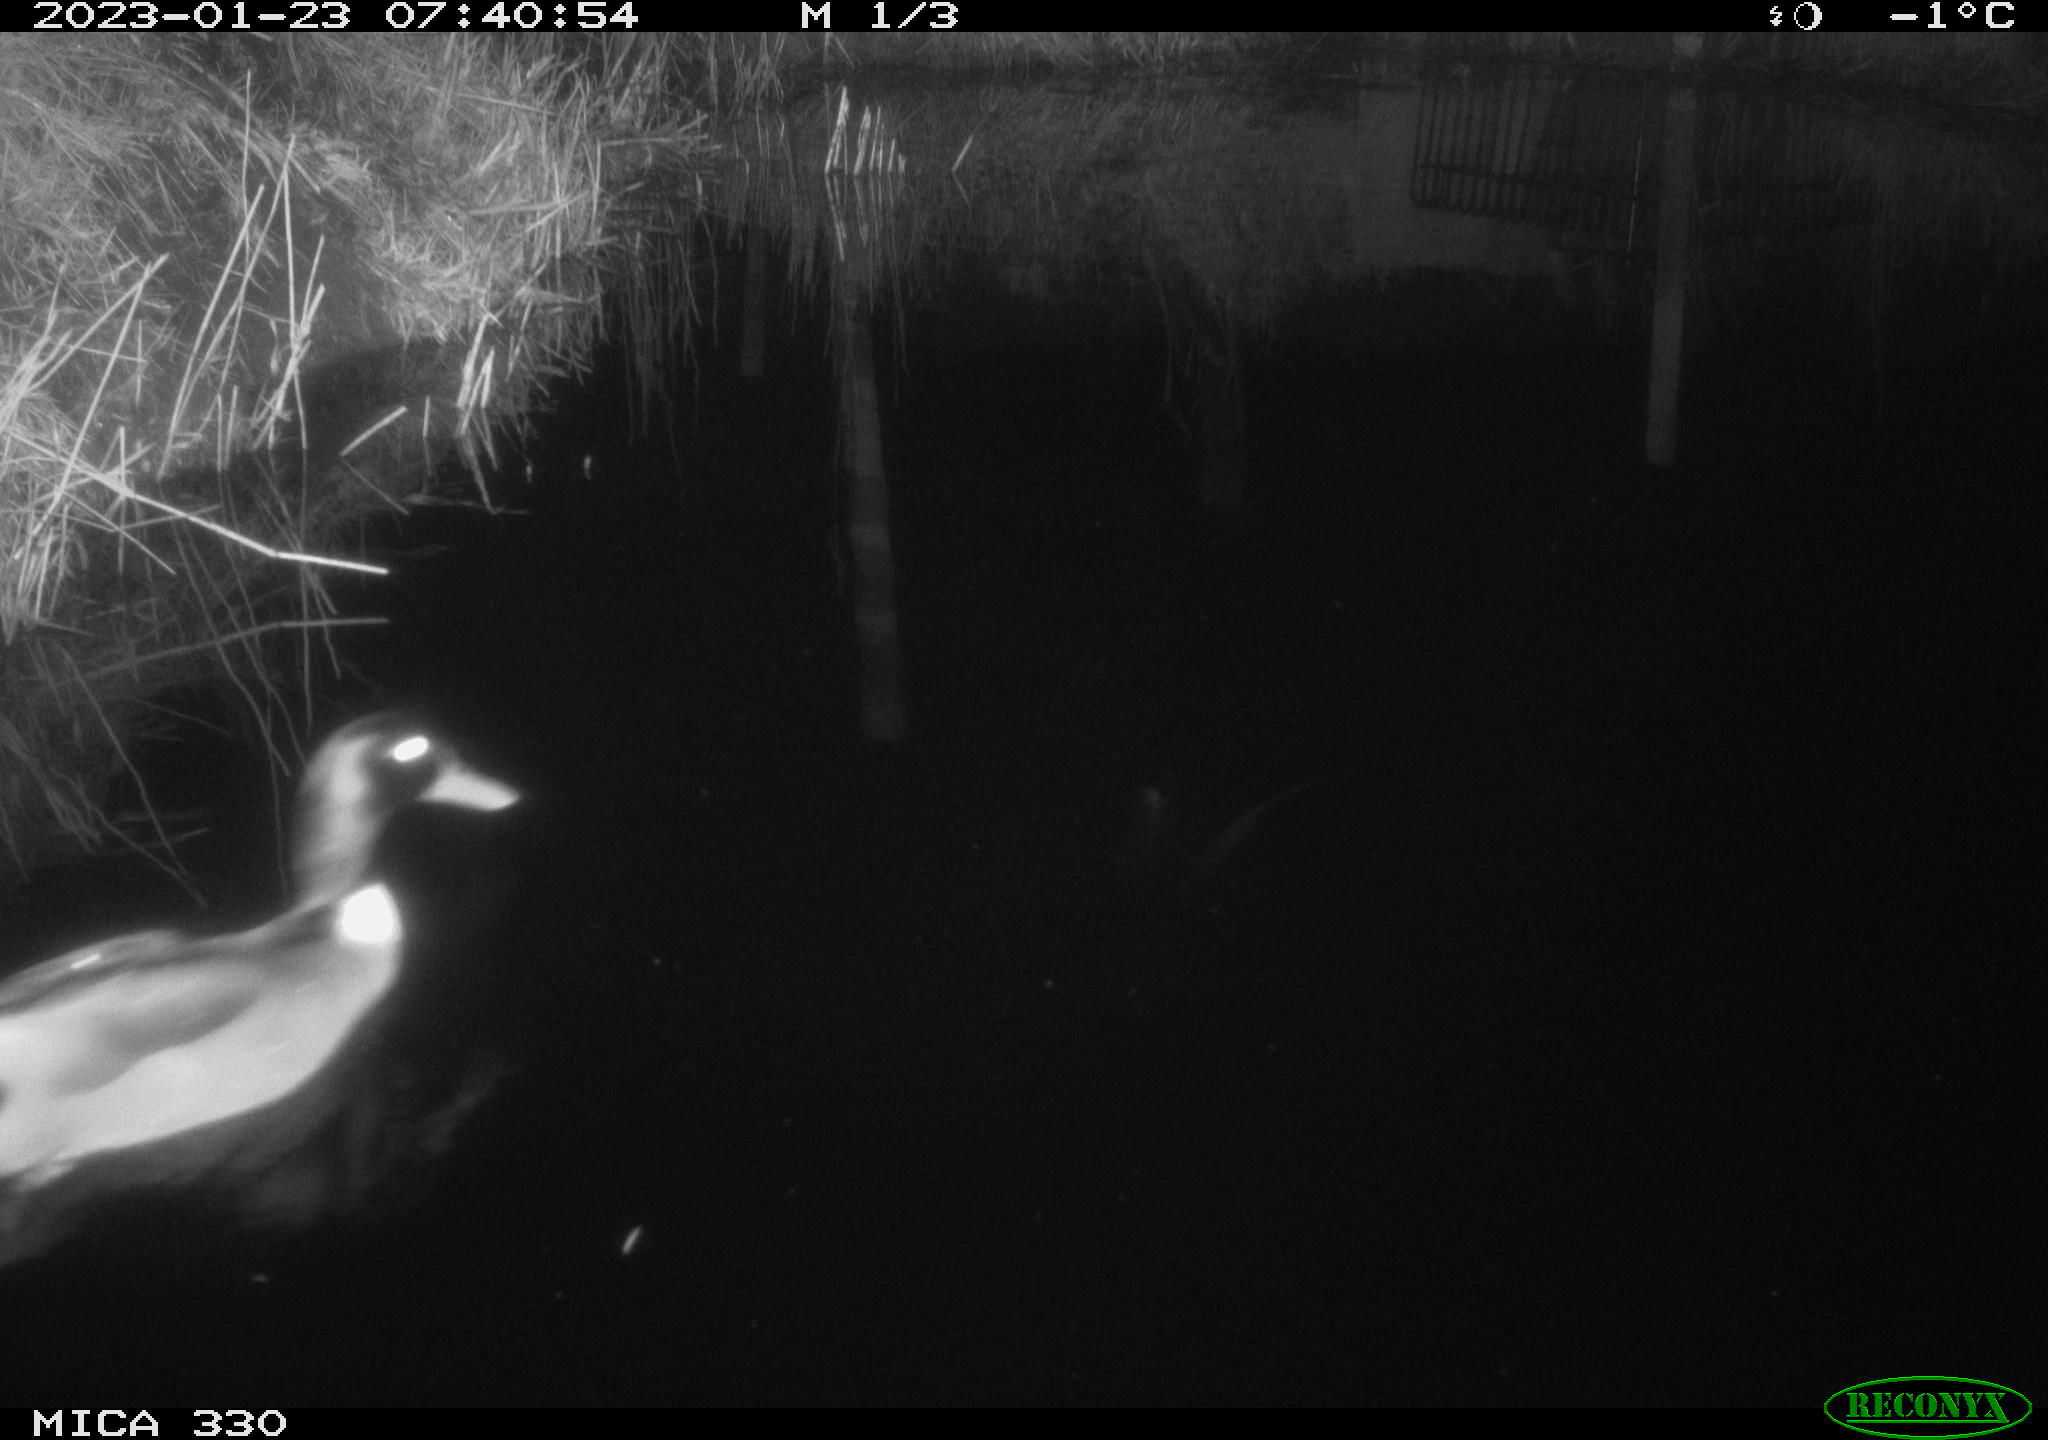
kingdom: Animalia
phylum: Chordata
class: Aves
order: Anseriformes
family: Anatidae
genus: Anas
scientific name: Anas
